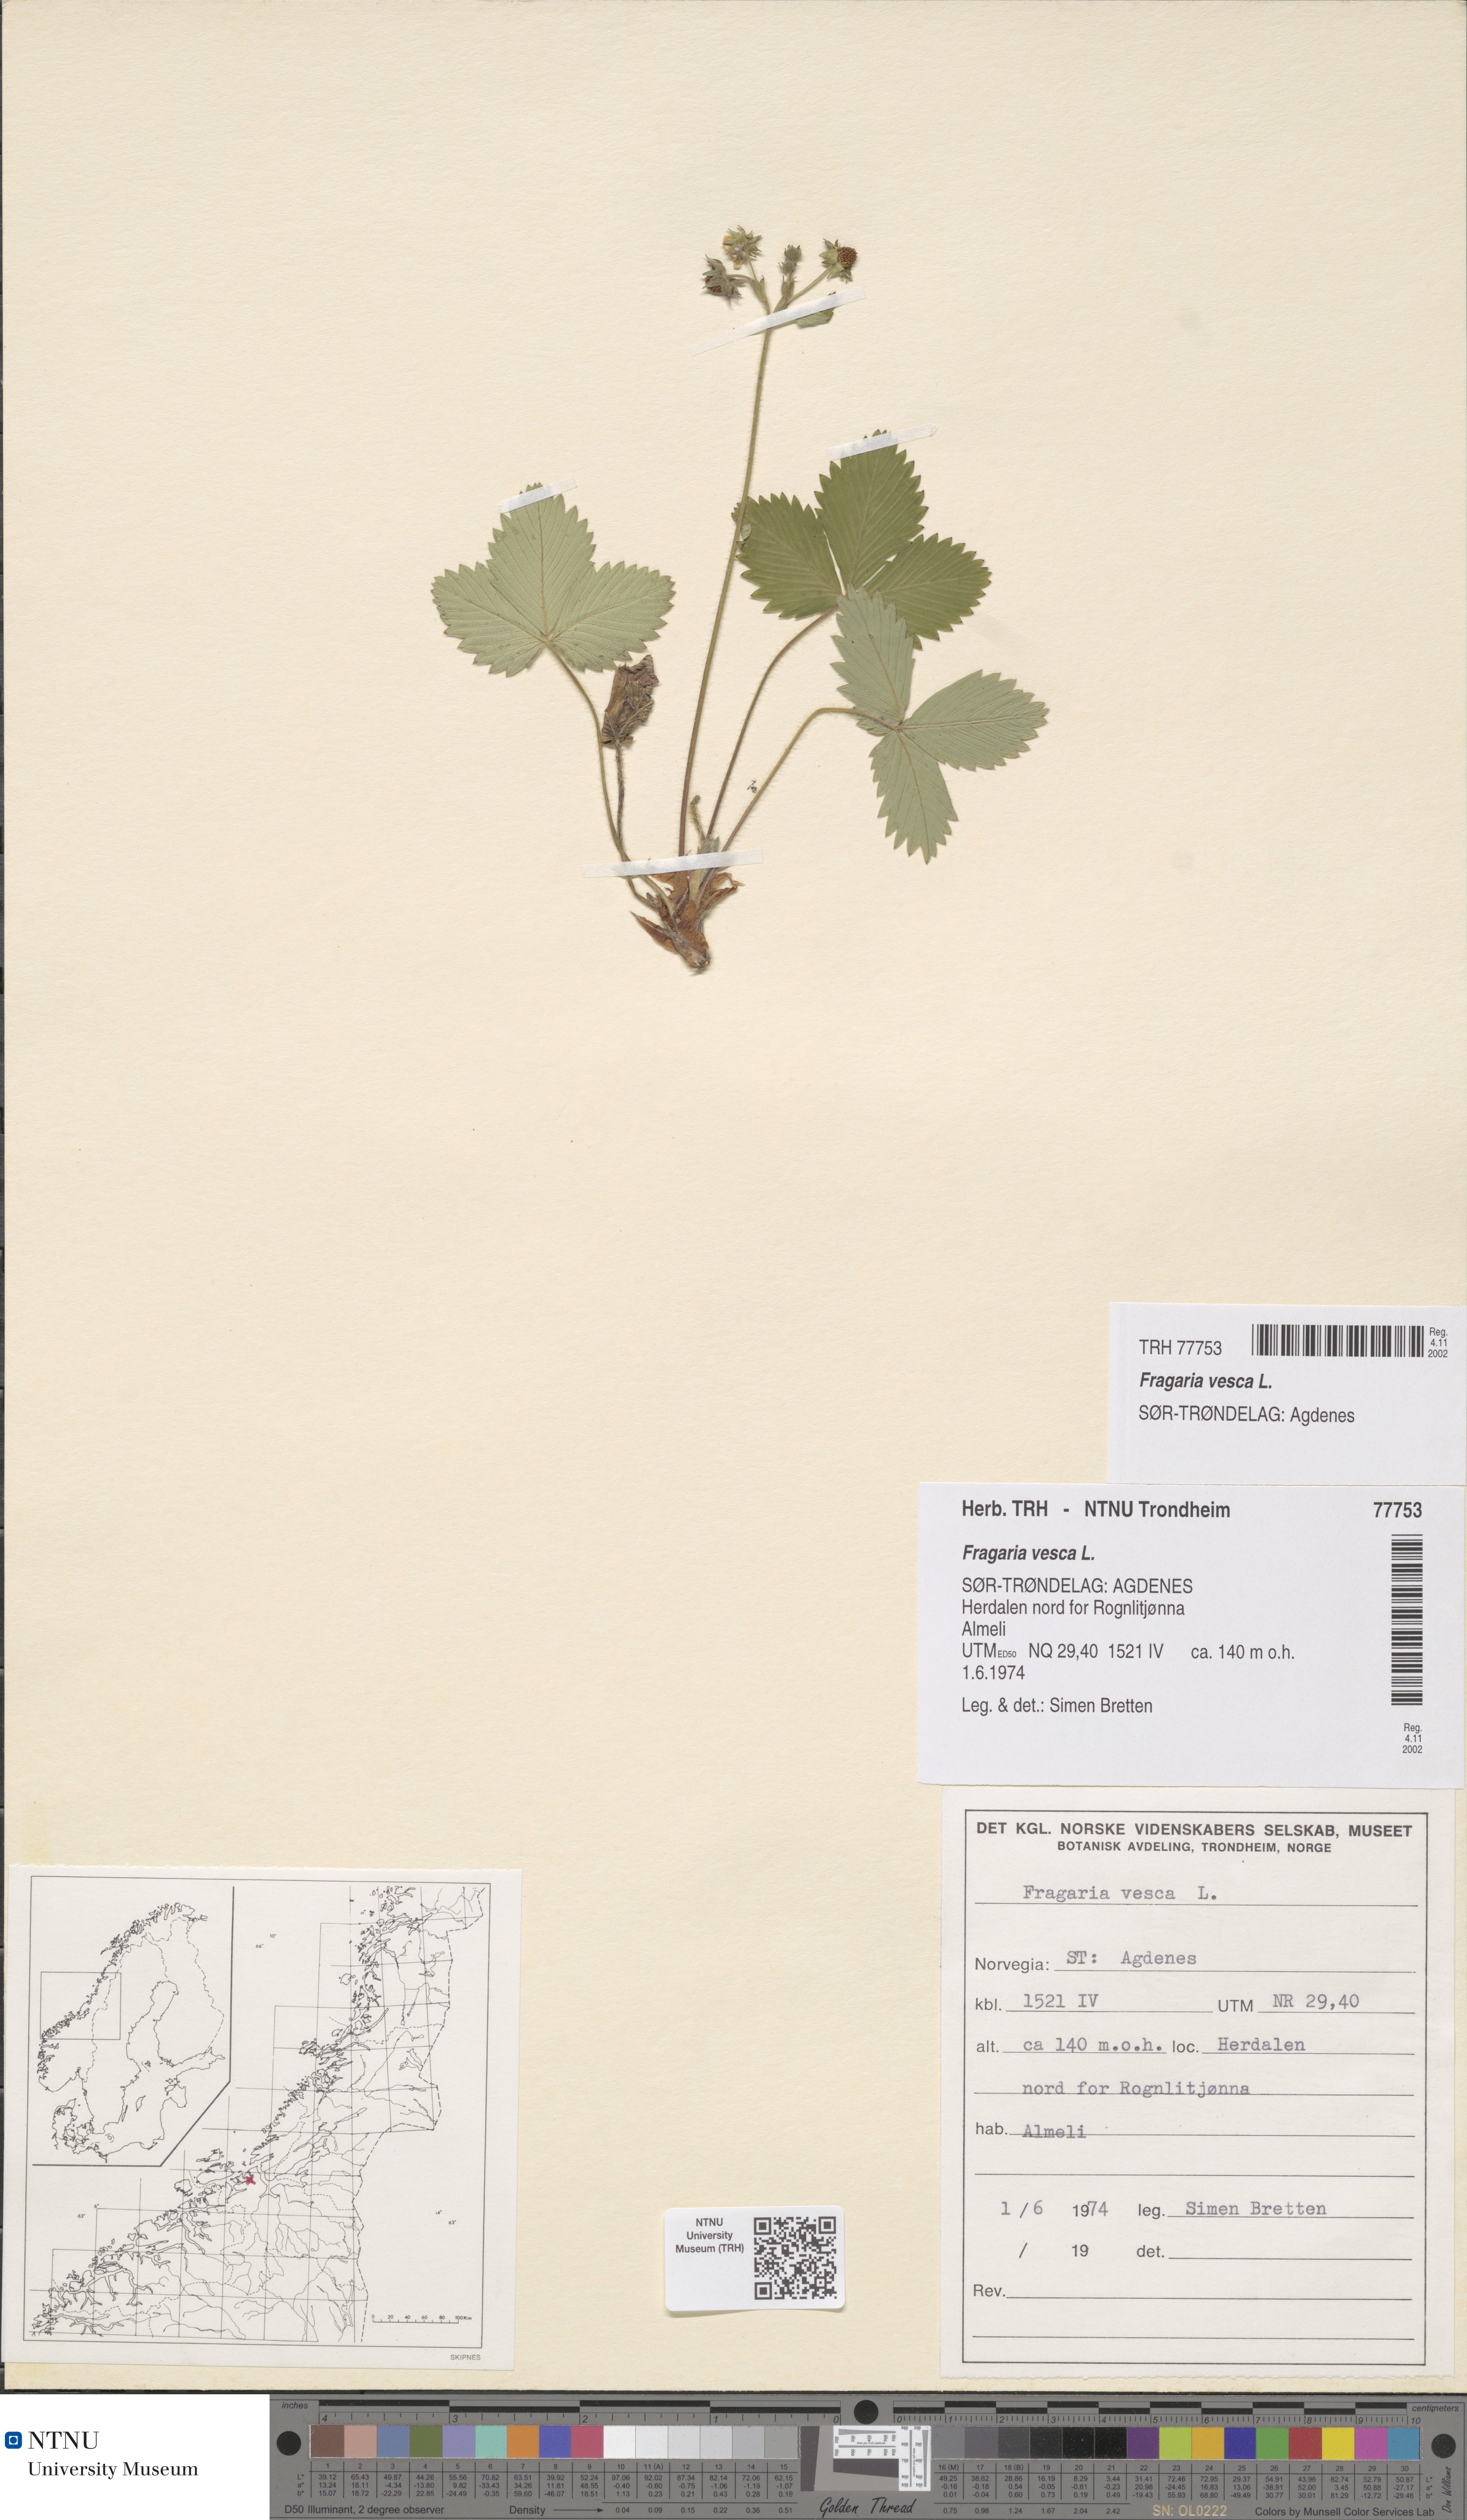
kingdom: Plantae
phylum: Tracheophyta
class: Magnoliopsida
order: Rosales
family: Rosaceae
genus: Fragaria
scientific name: Fragaria vesca
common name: Wild strawberry
